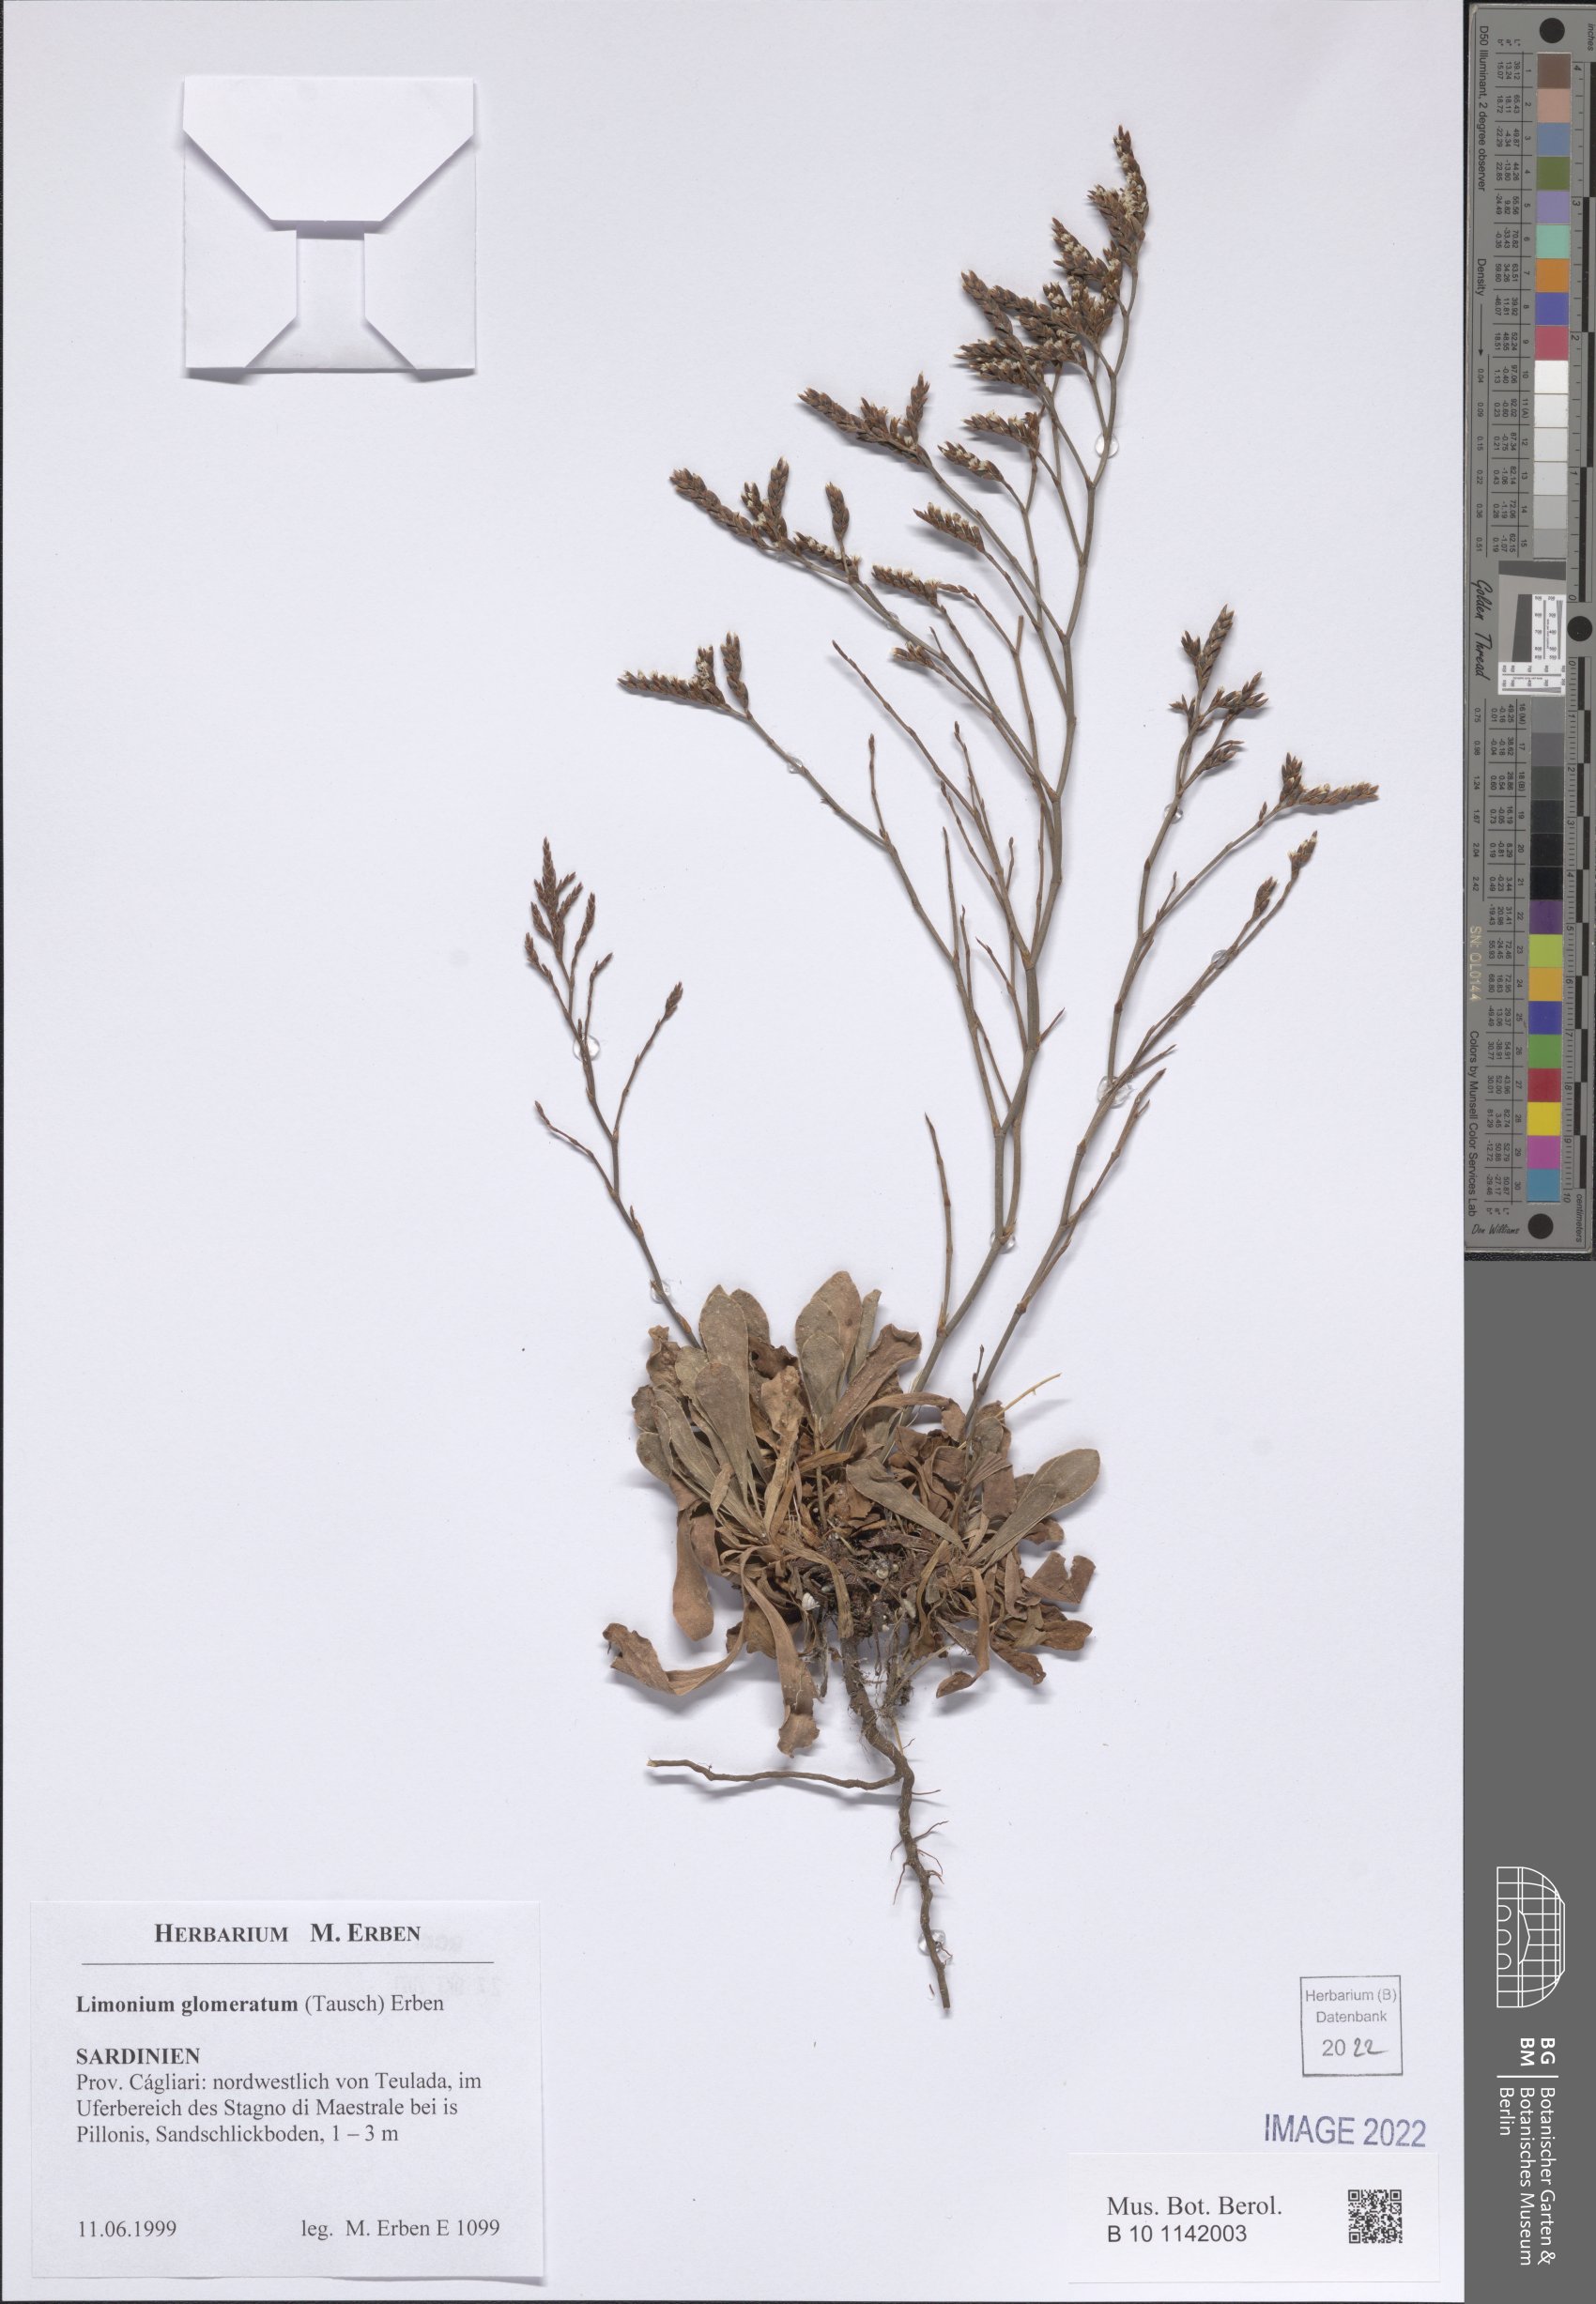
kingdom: Plantae
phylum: Tracheophyta
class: Magnoliopsida
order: Caryophyllales
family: Plumbaginaceae
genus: Limonium
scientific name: Limonium glomeratum
